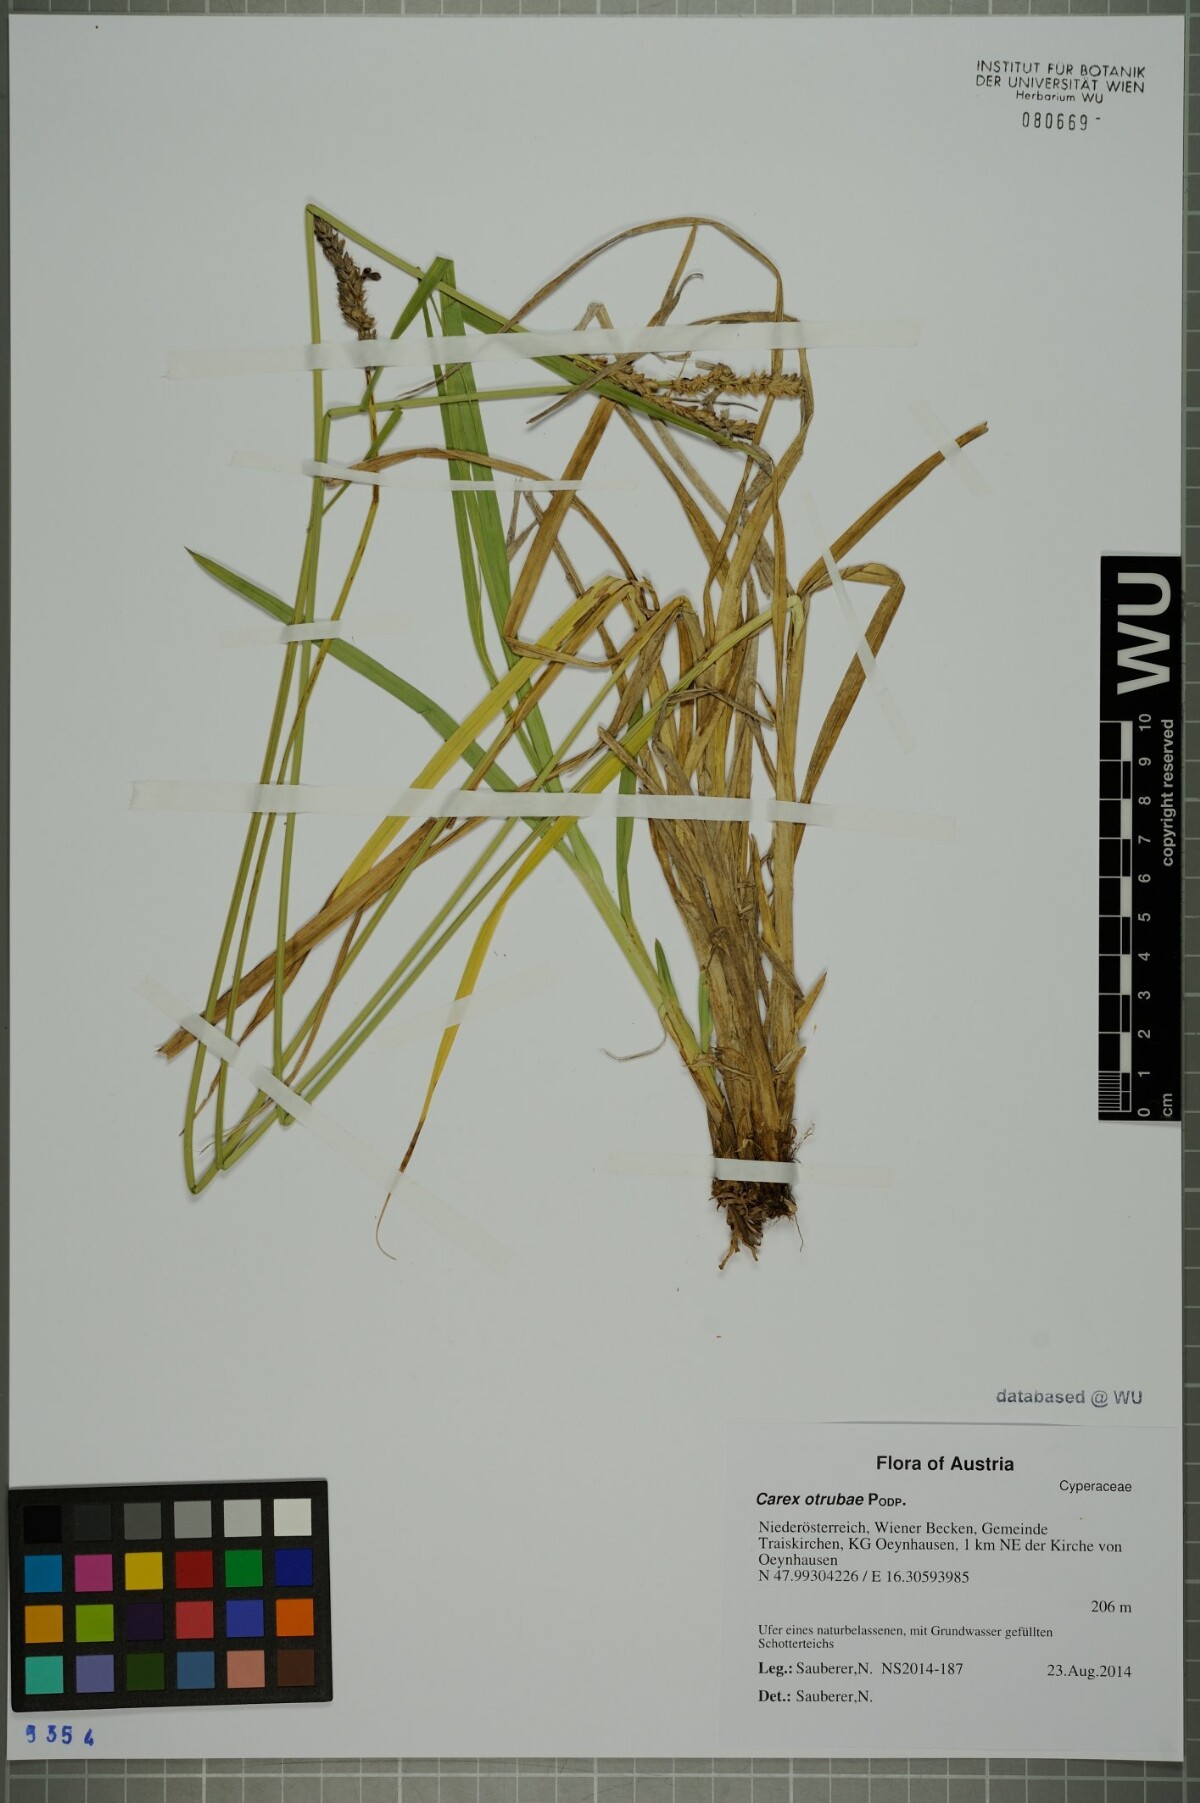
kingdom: Plantae
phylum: Tracheophyta
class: Liliopsida
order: Poales
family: Cyperaceae
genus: Carex
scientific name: Carex otrubae
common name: False fox-sedge
